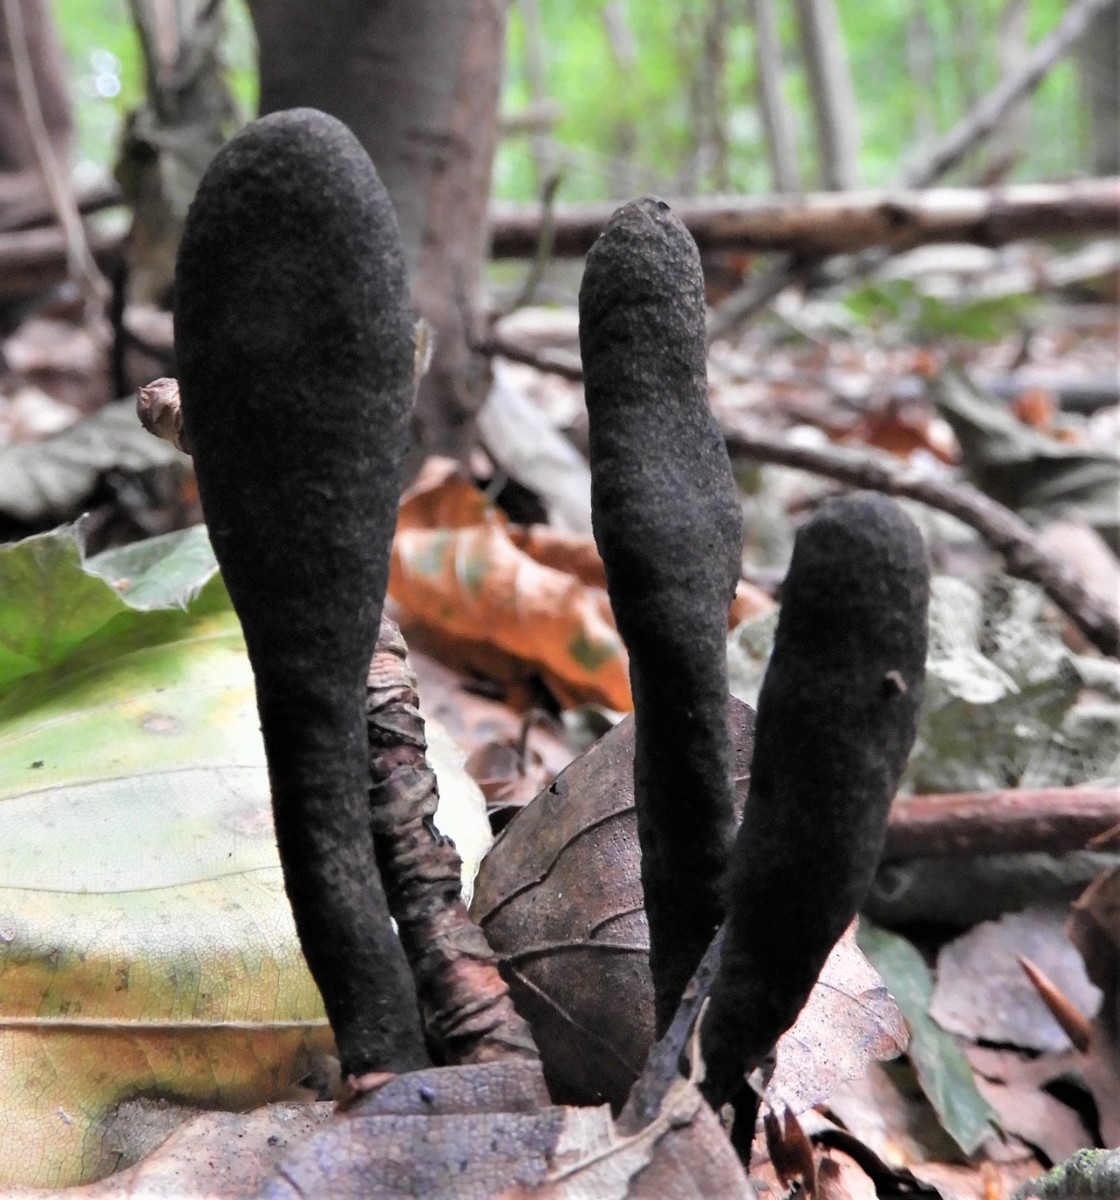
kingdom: Fungi
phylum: Ascomycota
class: Sordariomycetes
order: Xylariales
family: Xylariaceae
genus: Xylaria
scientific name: Xylaria longipes
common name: slank stødsvamp
